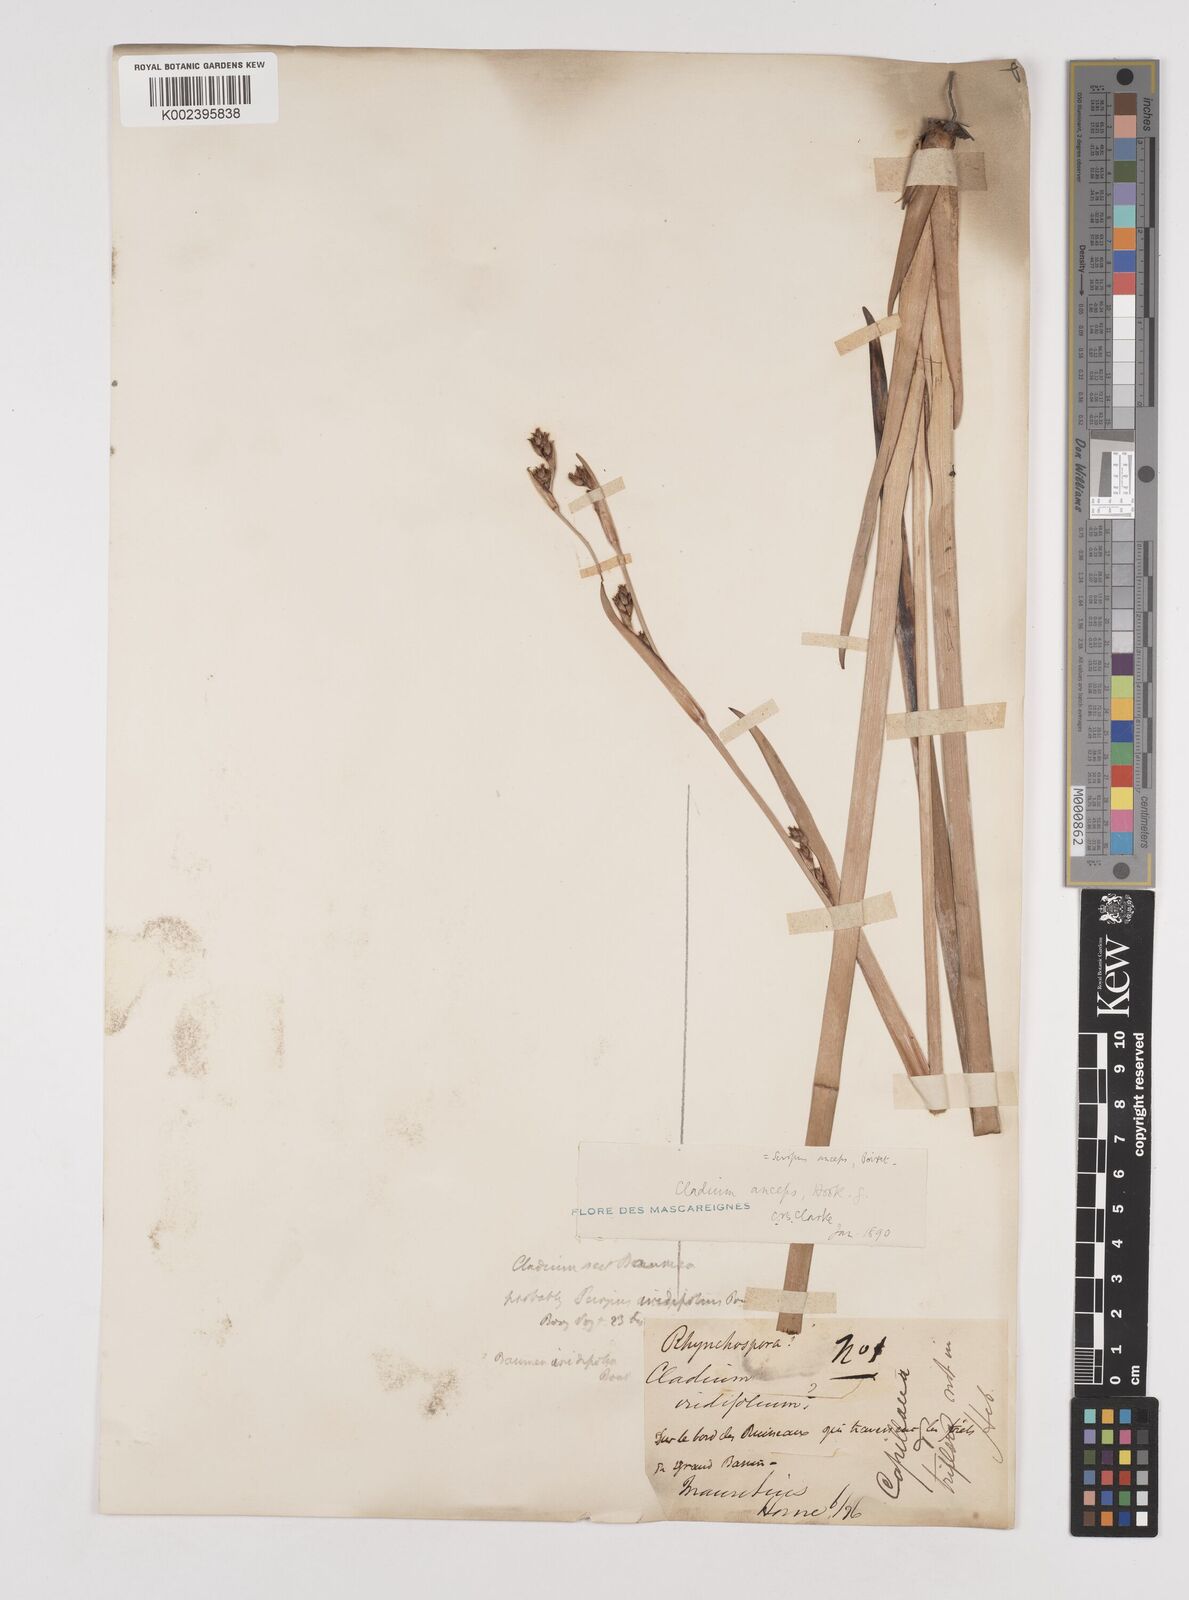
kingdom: Plantae
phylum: Tracheophyta
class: Liliopsida
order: Poales
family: Cyperaceae
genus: Machaerina
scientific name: Machaerina anceps
